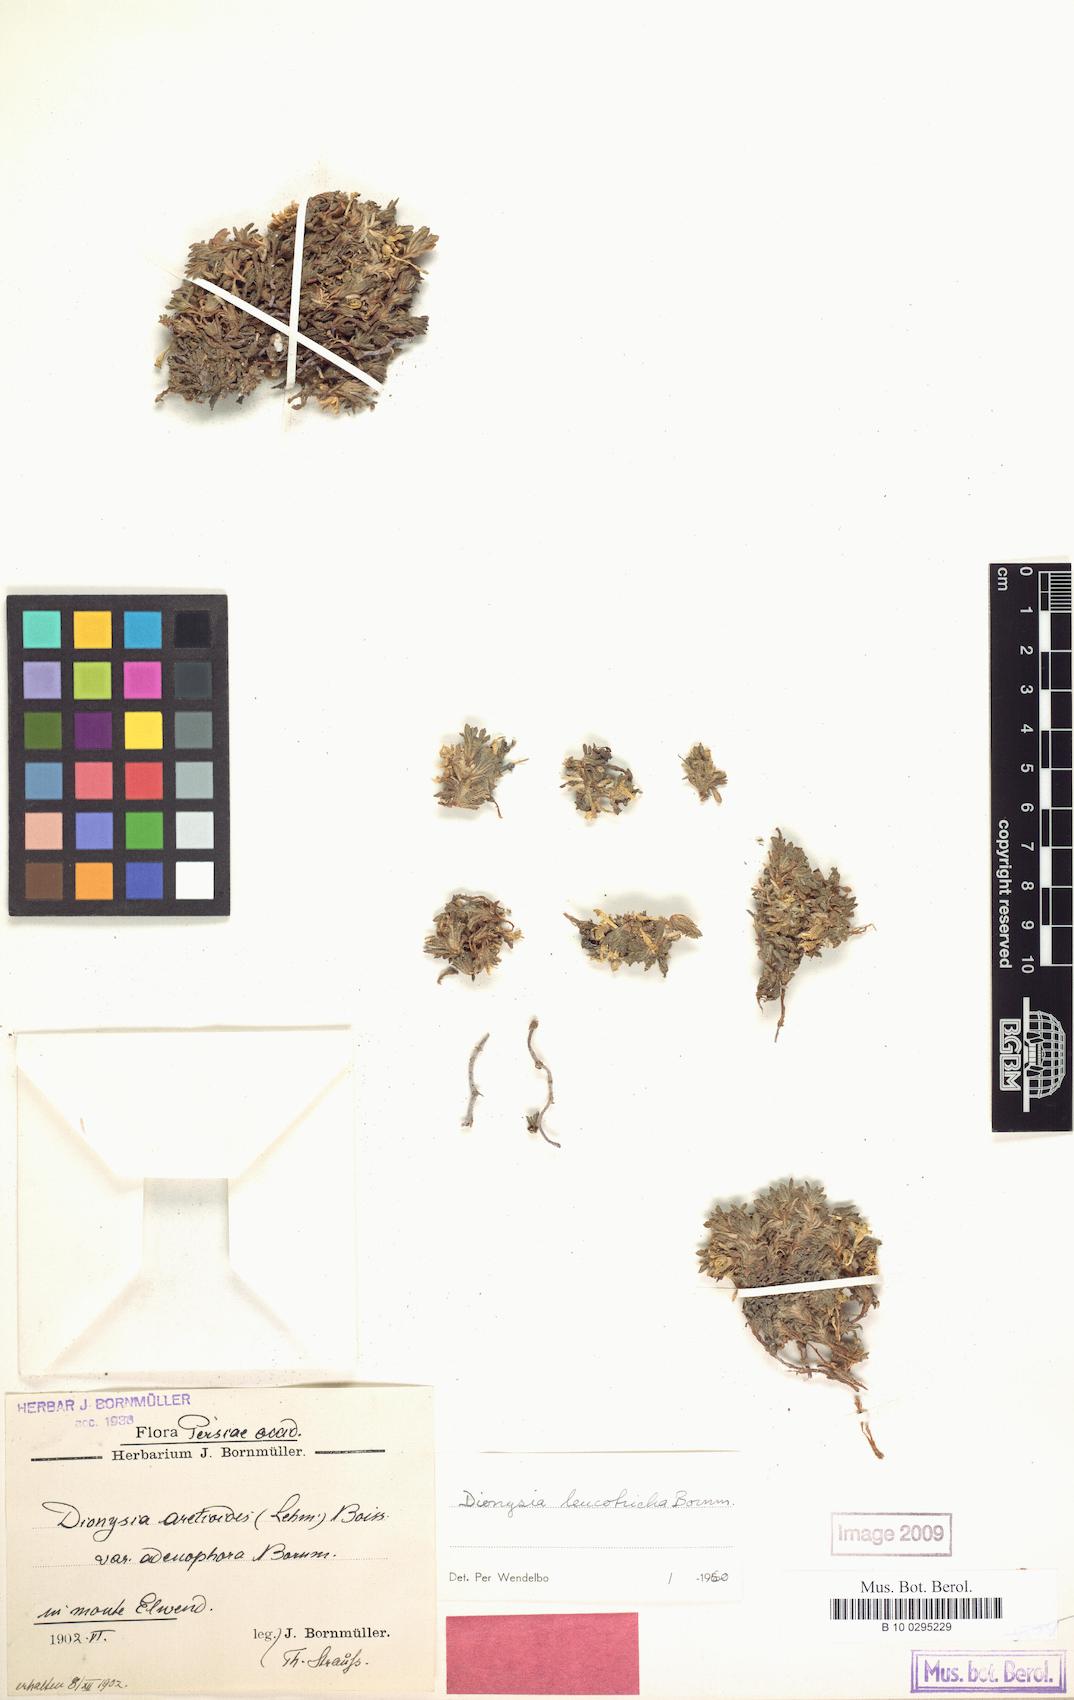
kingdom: Plantae
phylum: Tracheophyta
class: Magnoliopsida
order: Ericales
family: Primulaceae
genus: Dionysia
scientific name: Dionysia leucotricha
